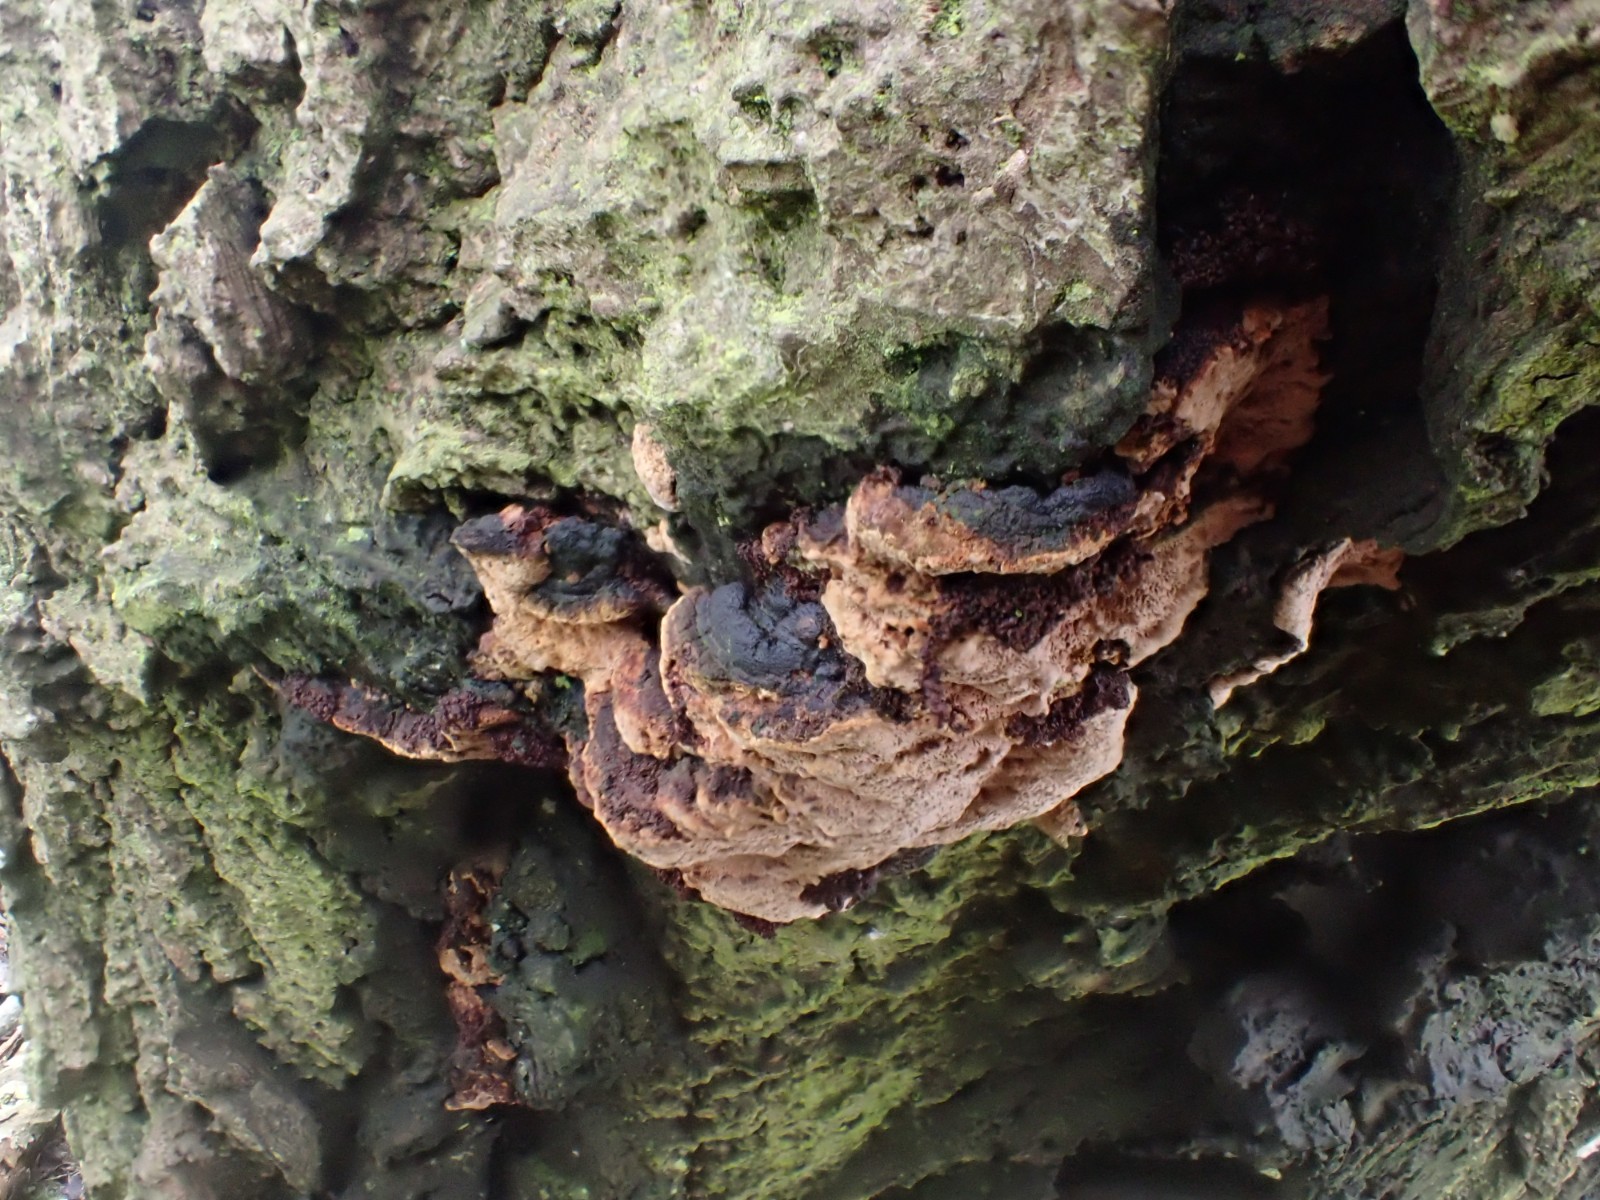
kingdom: Fungi
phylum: Basidiomycota
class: Agaricomycetes
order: Hymenochaetales
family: Hymenochaetaceae
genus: Phellinopsis
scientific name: Phellinopsis conchata
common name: pile-ildporesvamp
